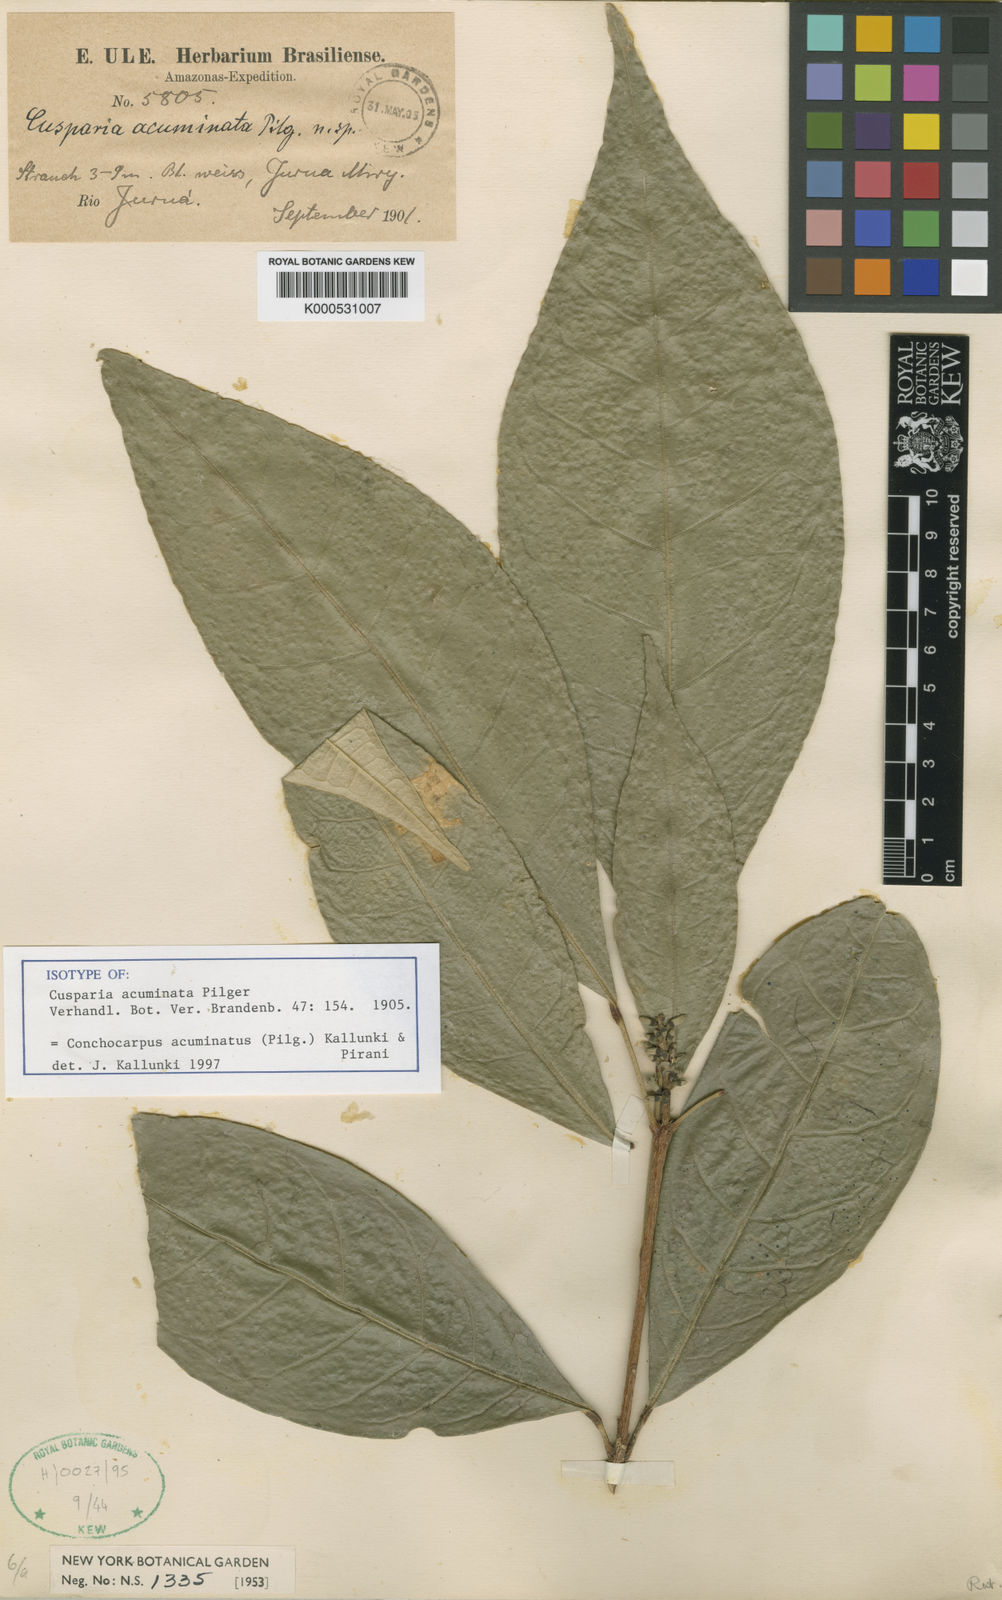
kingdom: Plantae
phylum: Tracheophyta
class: Magnoliopsida
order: Sapindales
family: Rutaceae
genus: Conchocarpus
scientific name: Conchocarpus acuminatus
